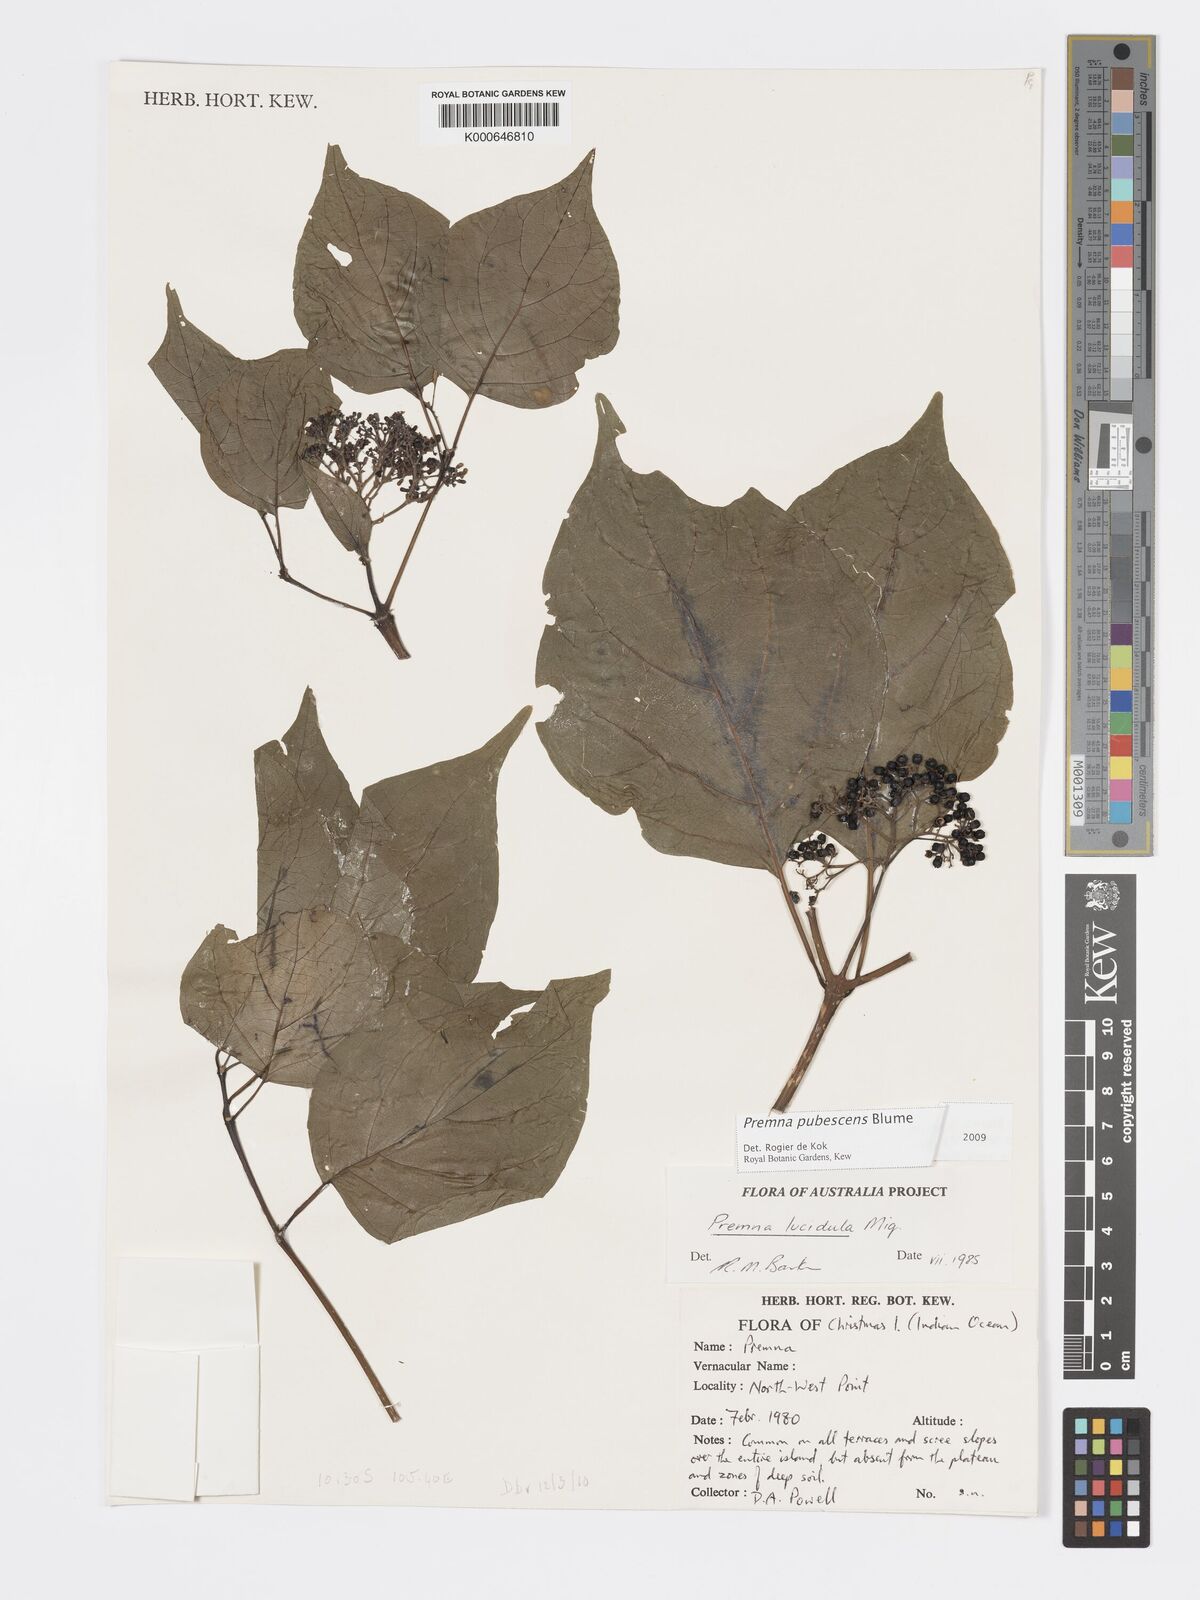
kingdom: Plantae
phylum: Tracheophyta
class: Magnoliopsida
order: Lamiales
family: Lamiaceae
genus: Premna
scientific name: Premna
